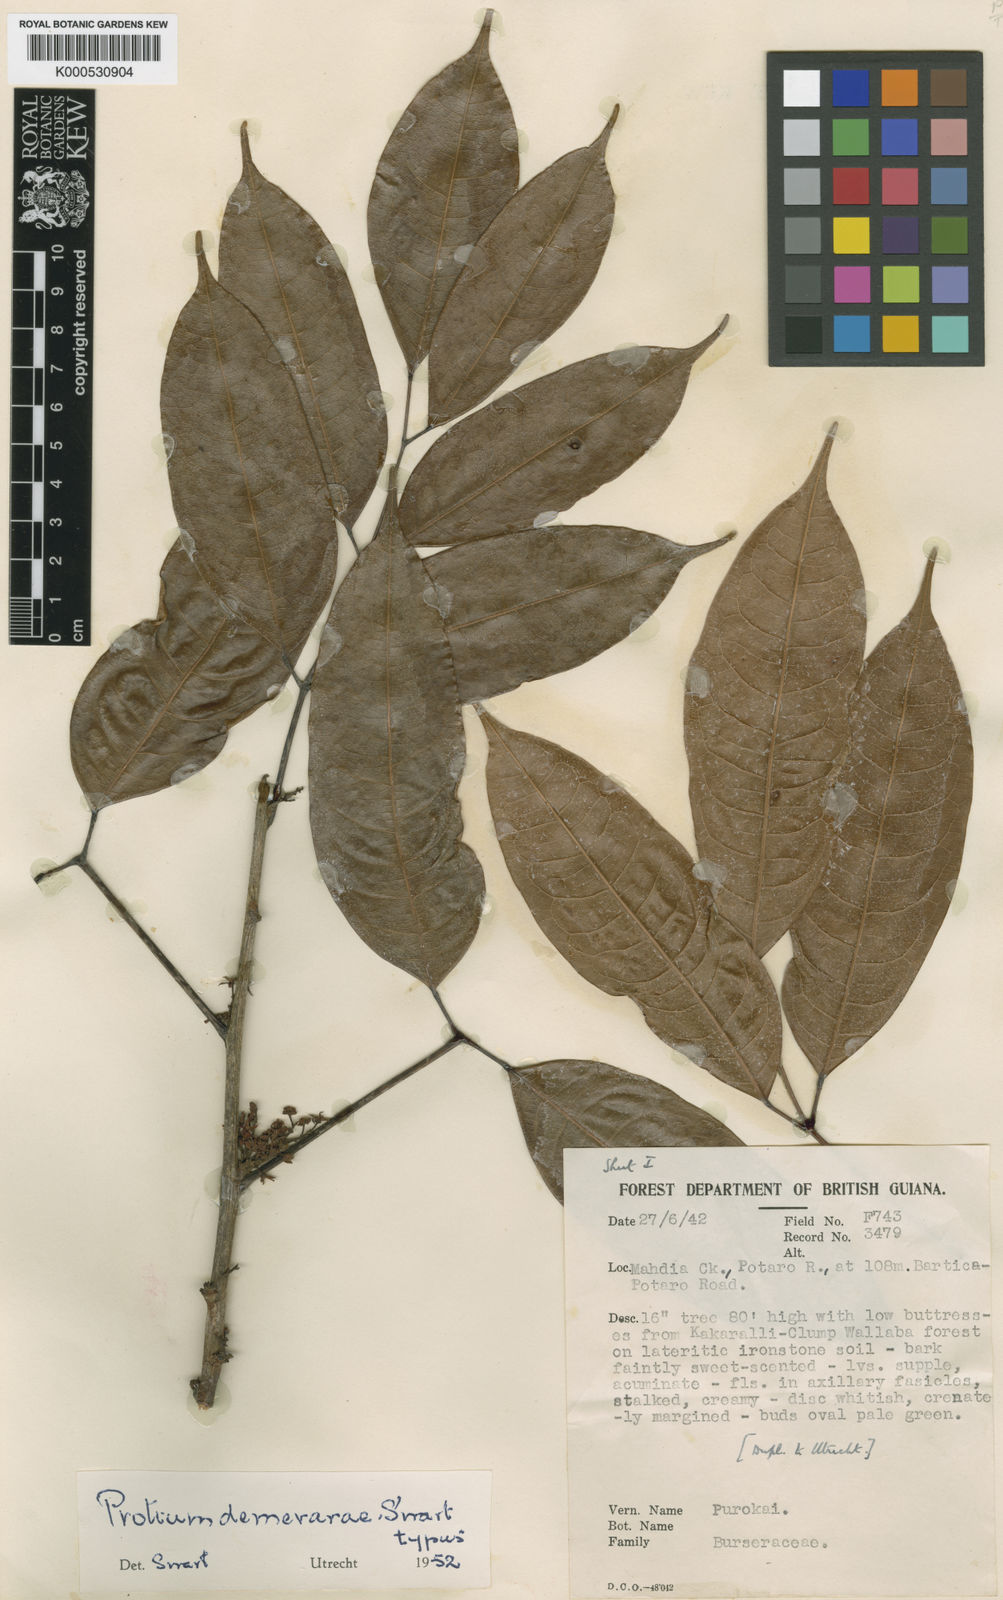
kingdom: Plantae
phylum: Tracheophyta
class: Magnoliopsida
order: Sapindales
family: Burseraceae
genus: Protium
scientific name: Protium
